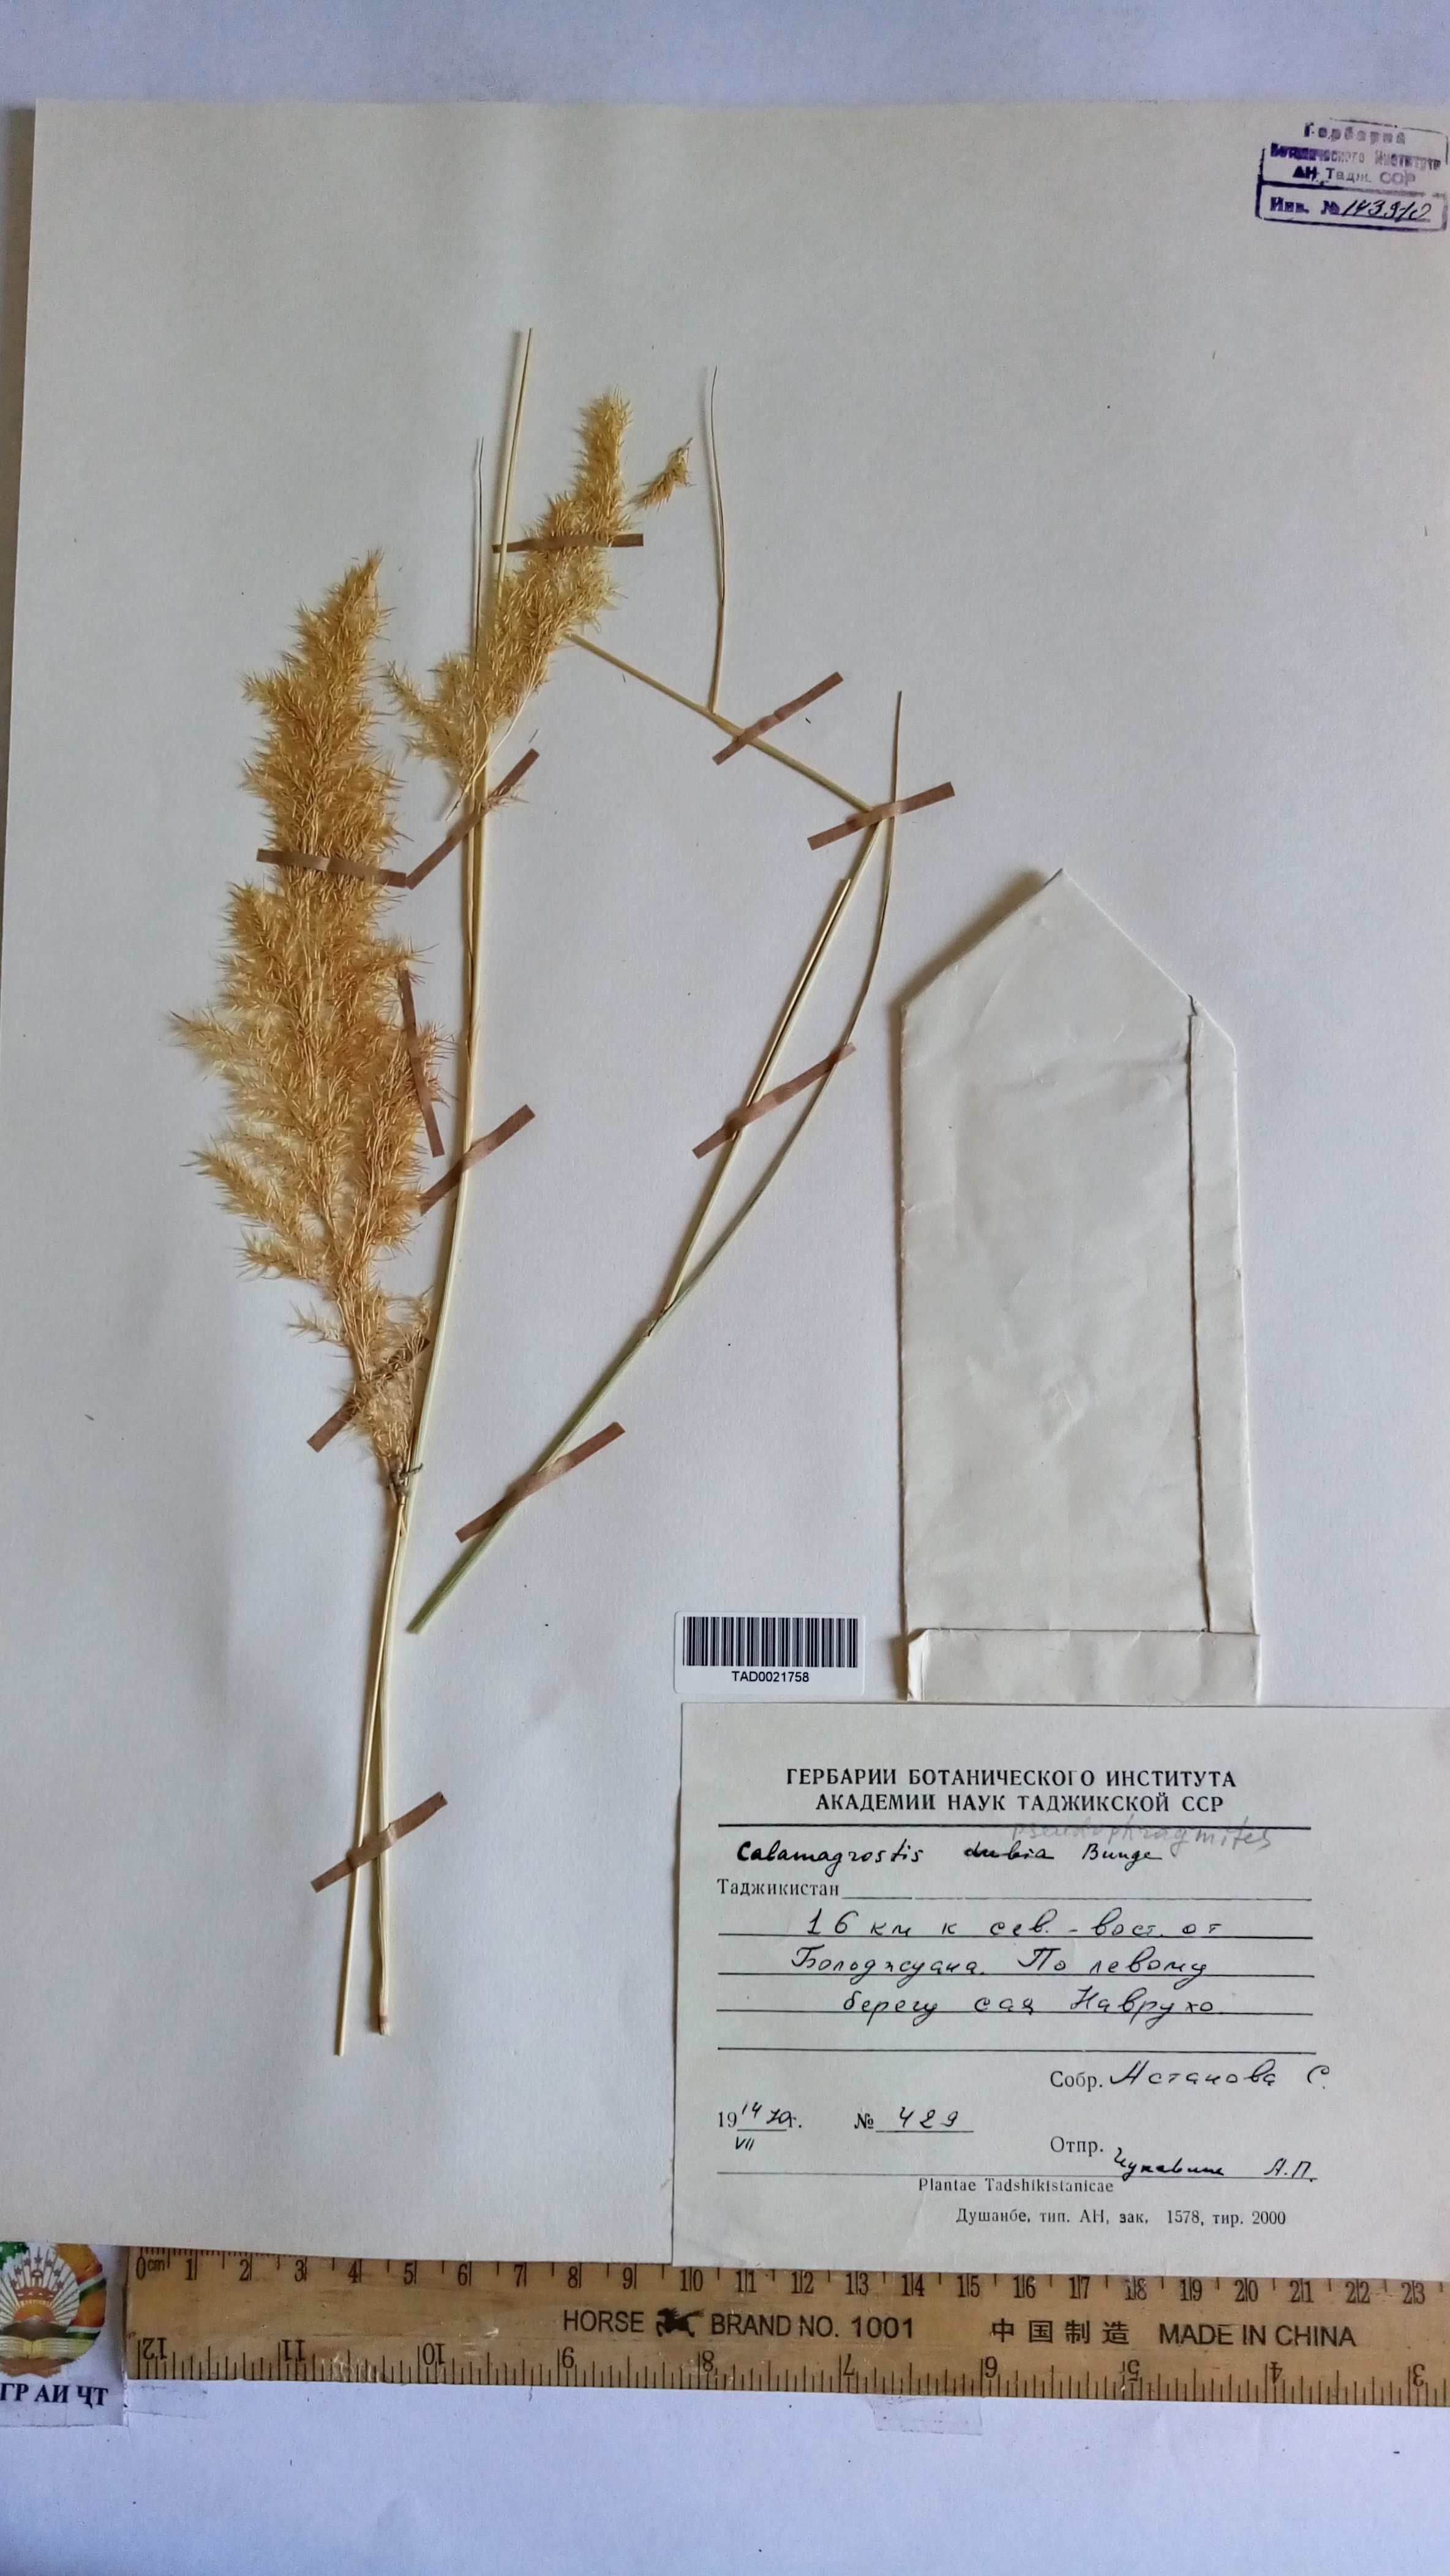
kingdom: Plantae
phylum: Tracheophyta
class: Liliopsida
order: Poales
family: Poaceae
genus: Calamagrostis
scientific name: Calamagrostis pseudophragmites
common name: Coastal small-reed
